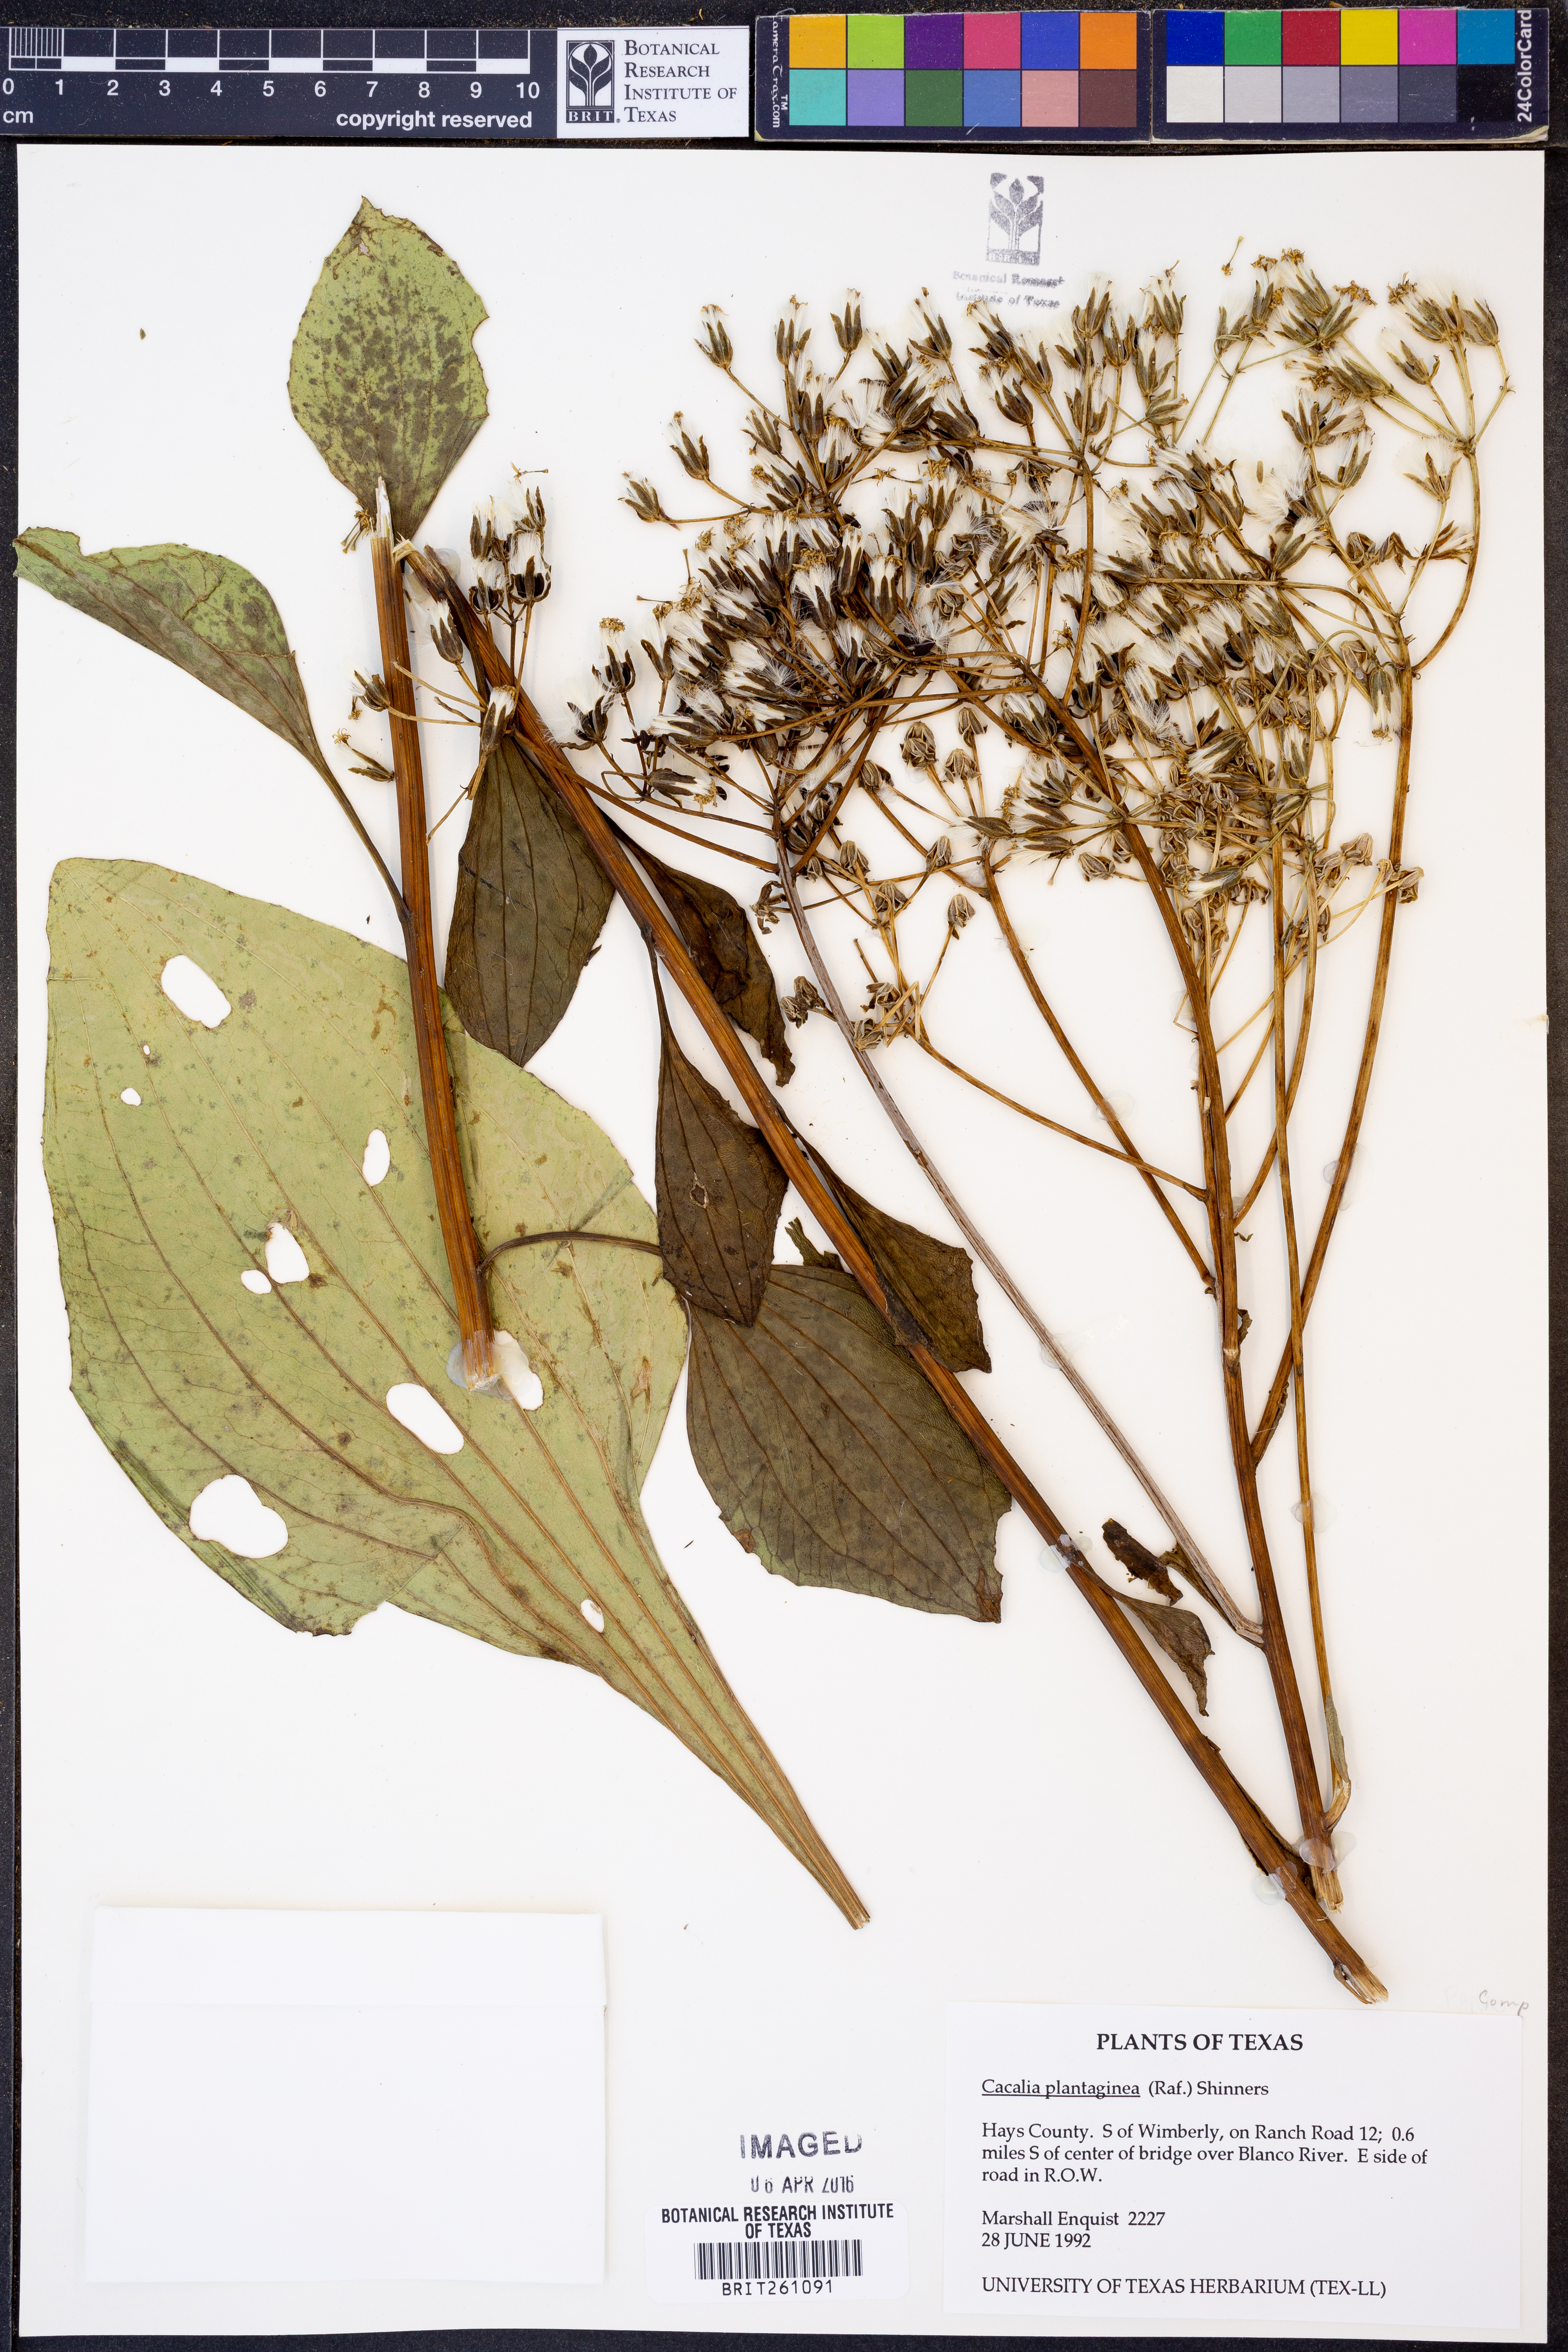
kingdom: Plantae
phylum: Tracheophyta
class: Magnoliopsida
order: Asterales
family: Asteraceae
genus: Arnoglossum
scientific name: Arnoglossum plantagineum
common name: Groove-stemmed indian-plantain
